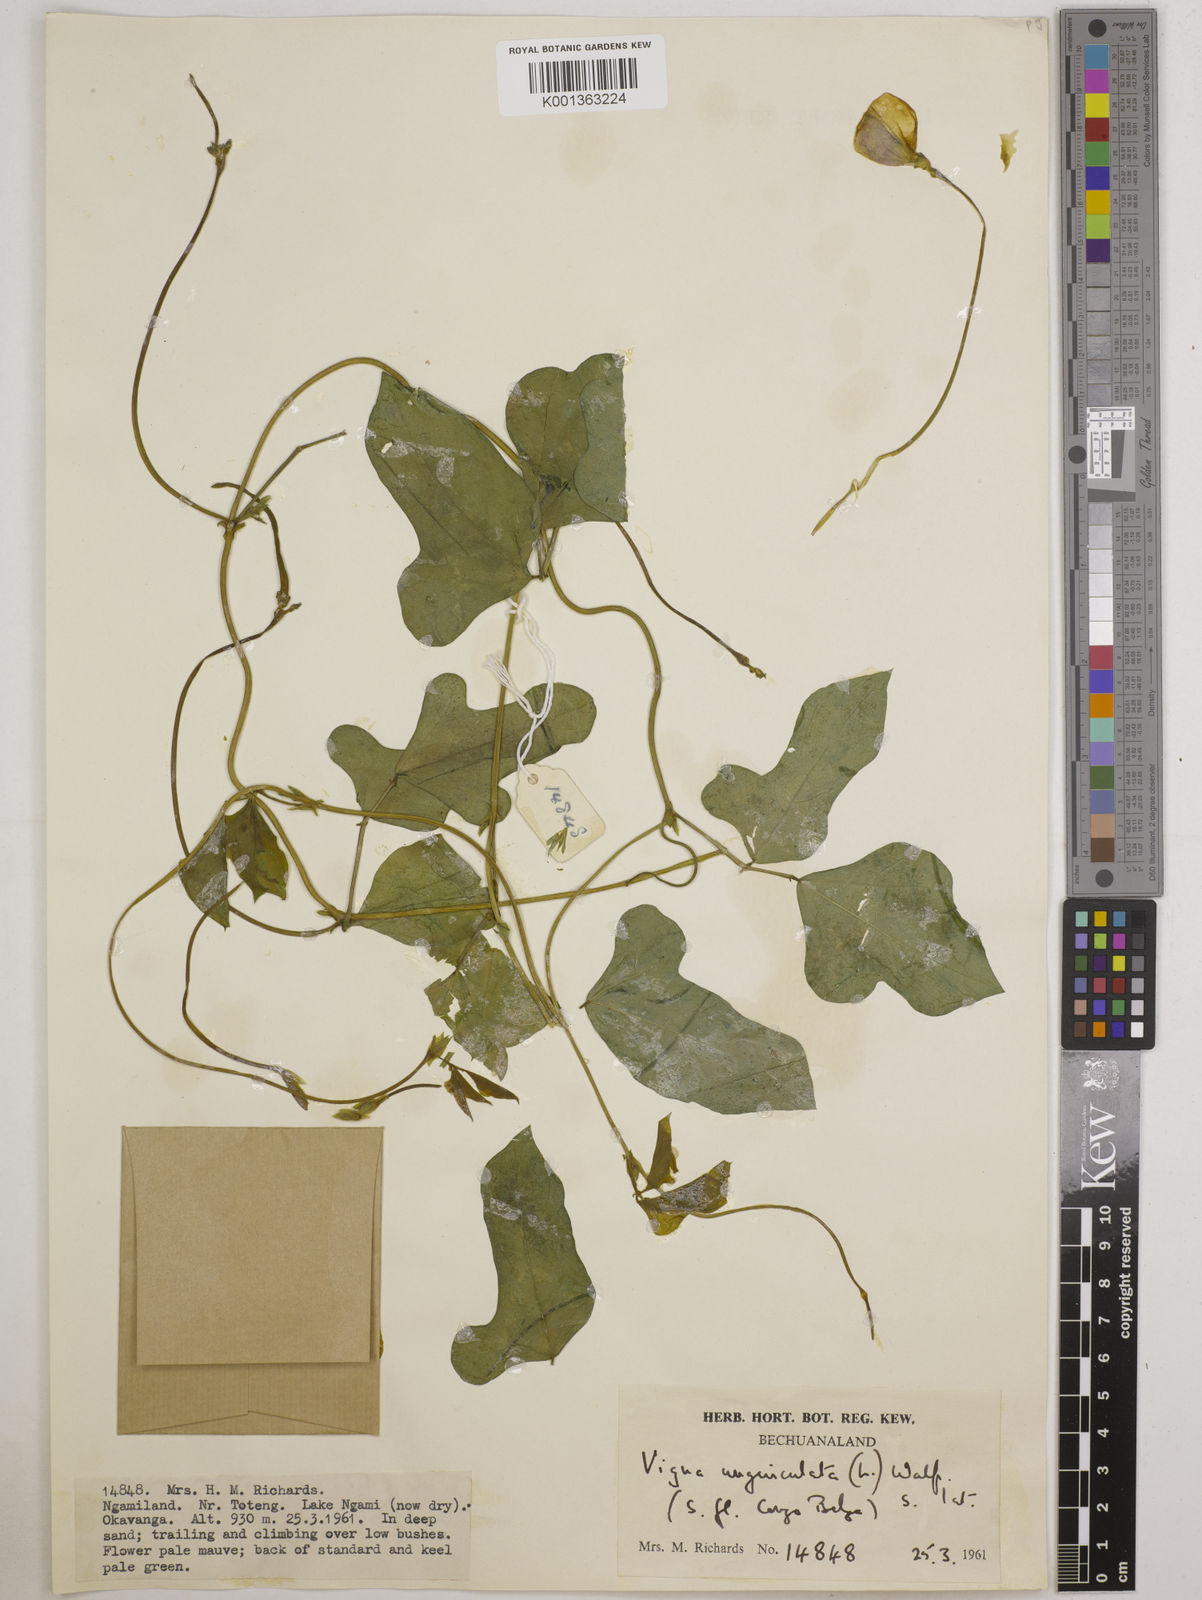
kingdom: Plantae
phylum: Tracheophyta
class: Magnoliopsida
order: Fabales
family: Fabaceae
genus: Vigna
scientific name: Vigna unguiculata
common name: Cowpea
